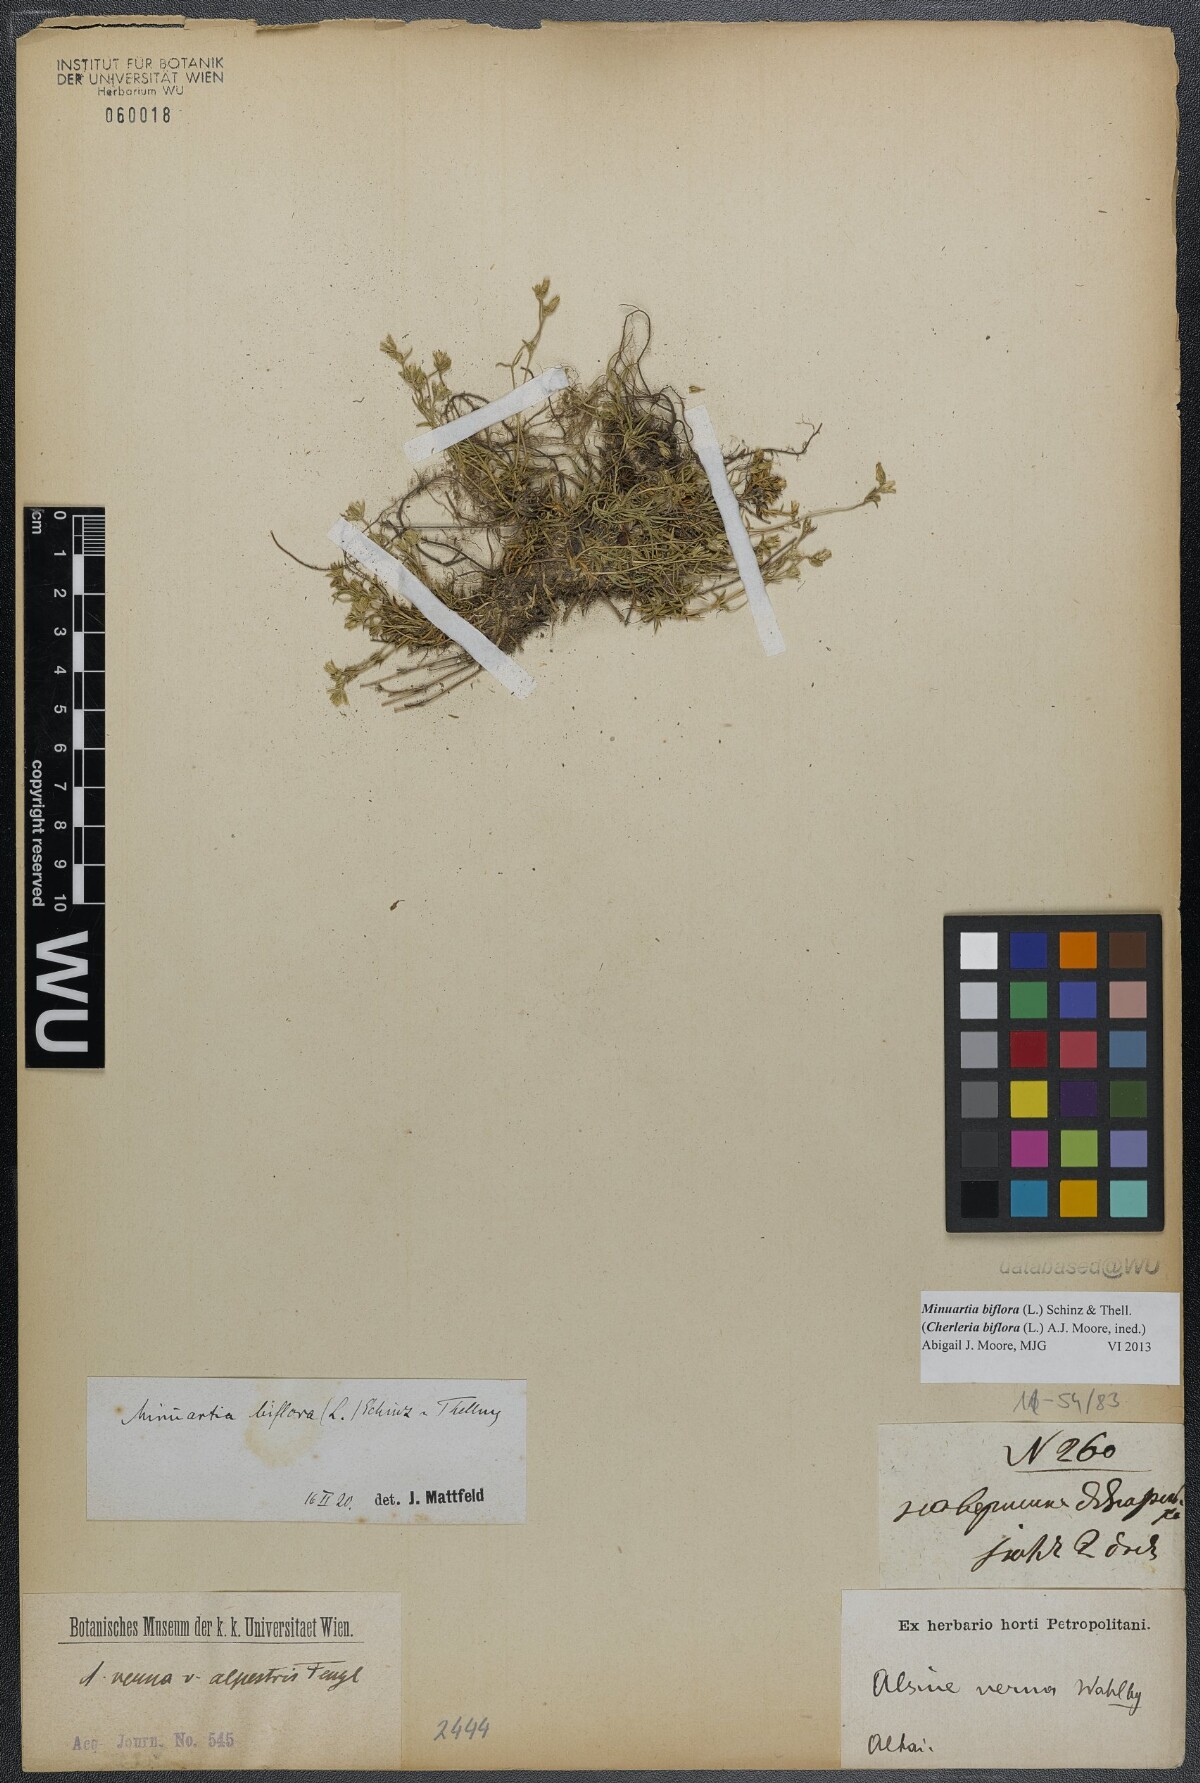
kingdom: Plantae
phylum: Tracheophyta
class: Magnoliopsida
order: Caryophyllales
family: Caryophyllaceae
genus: Cherleria
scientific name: Cherleria biflora
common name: Mountain sandwort
